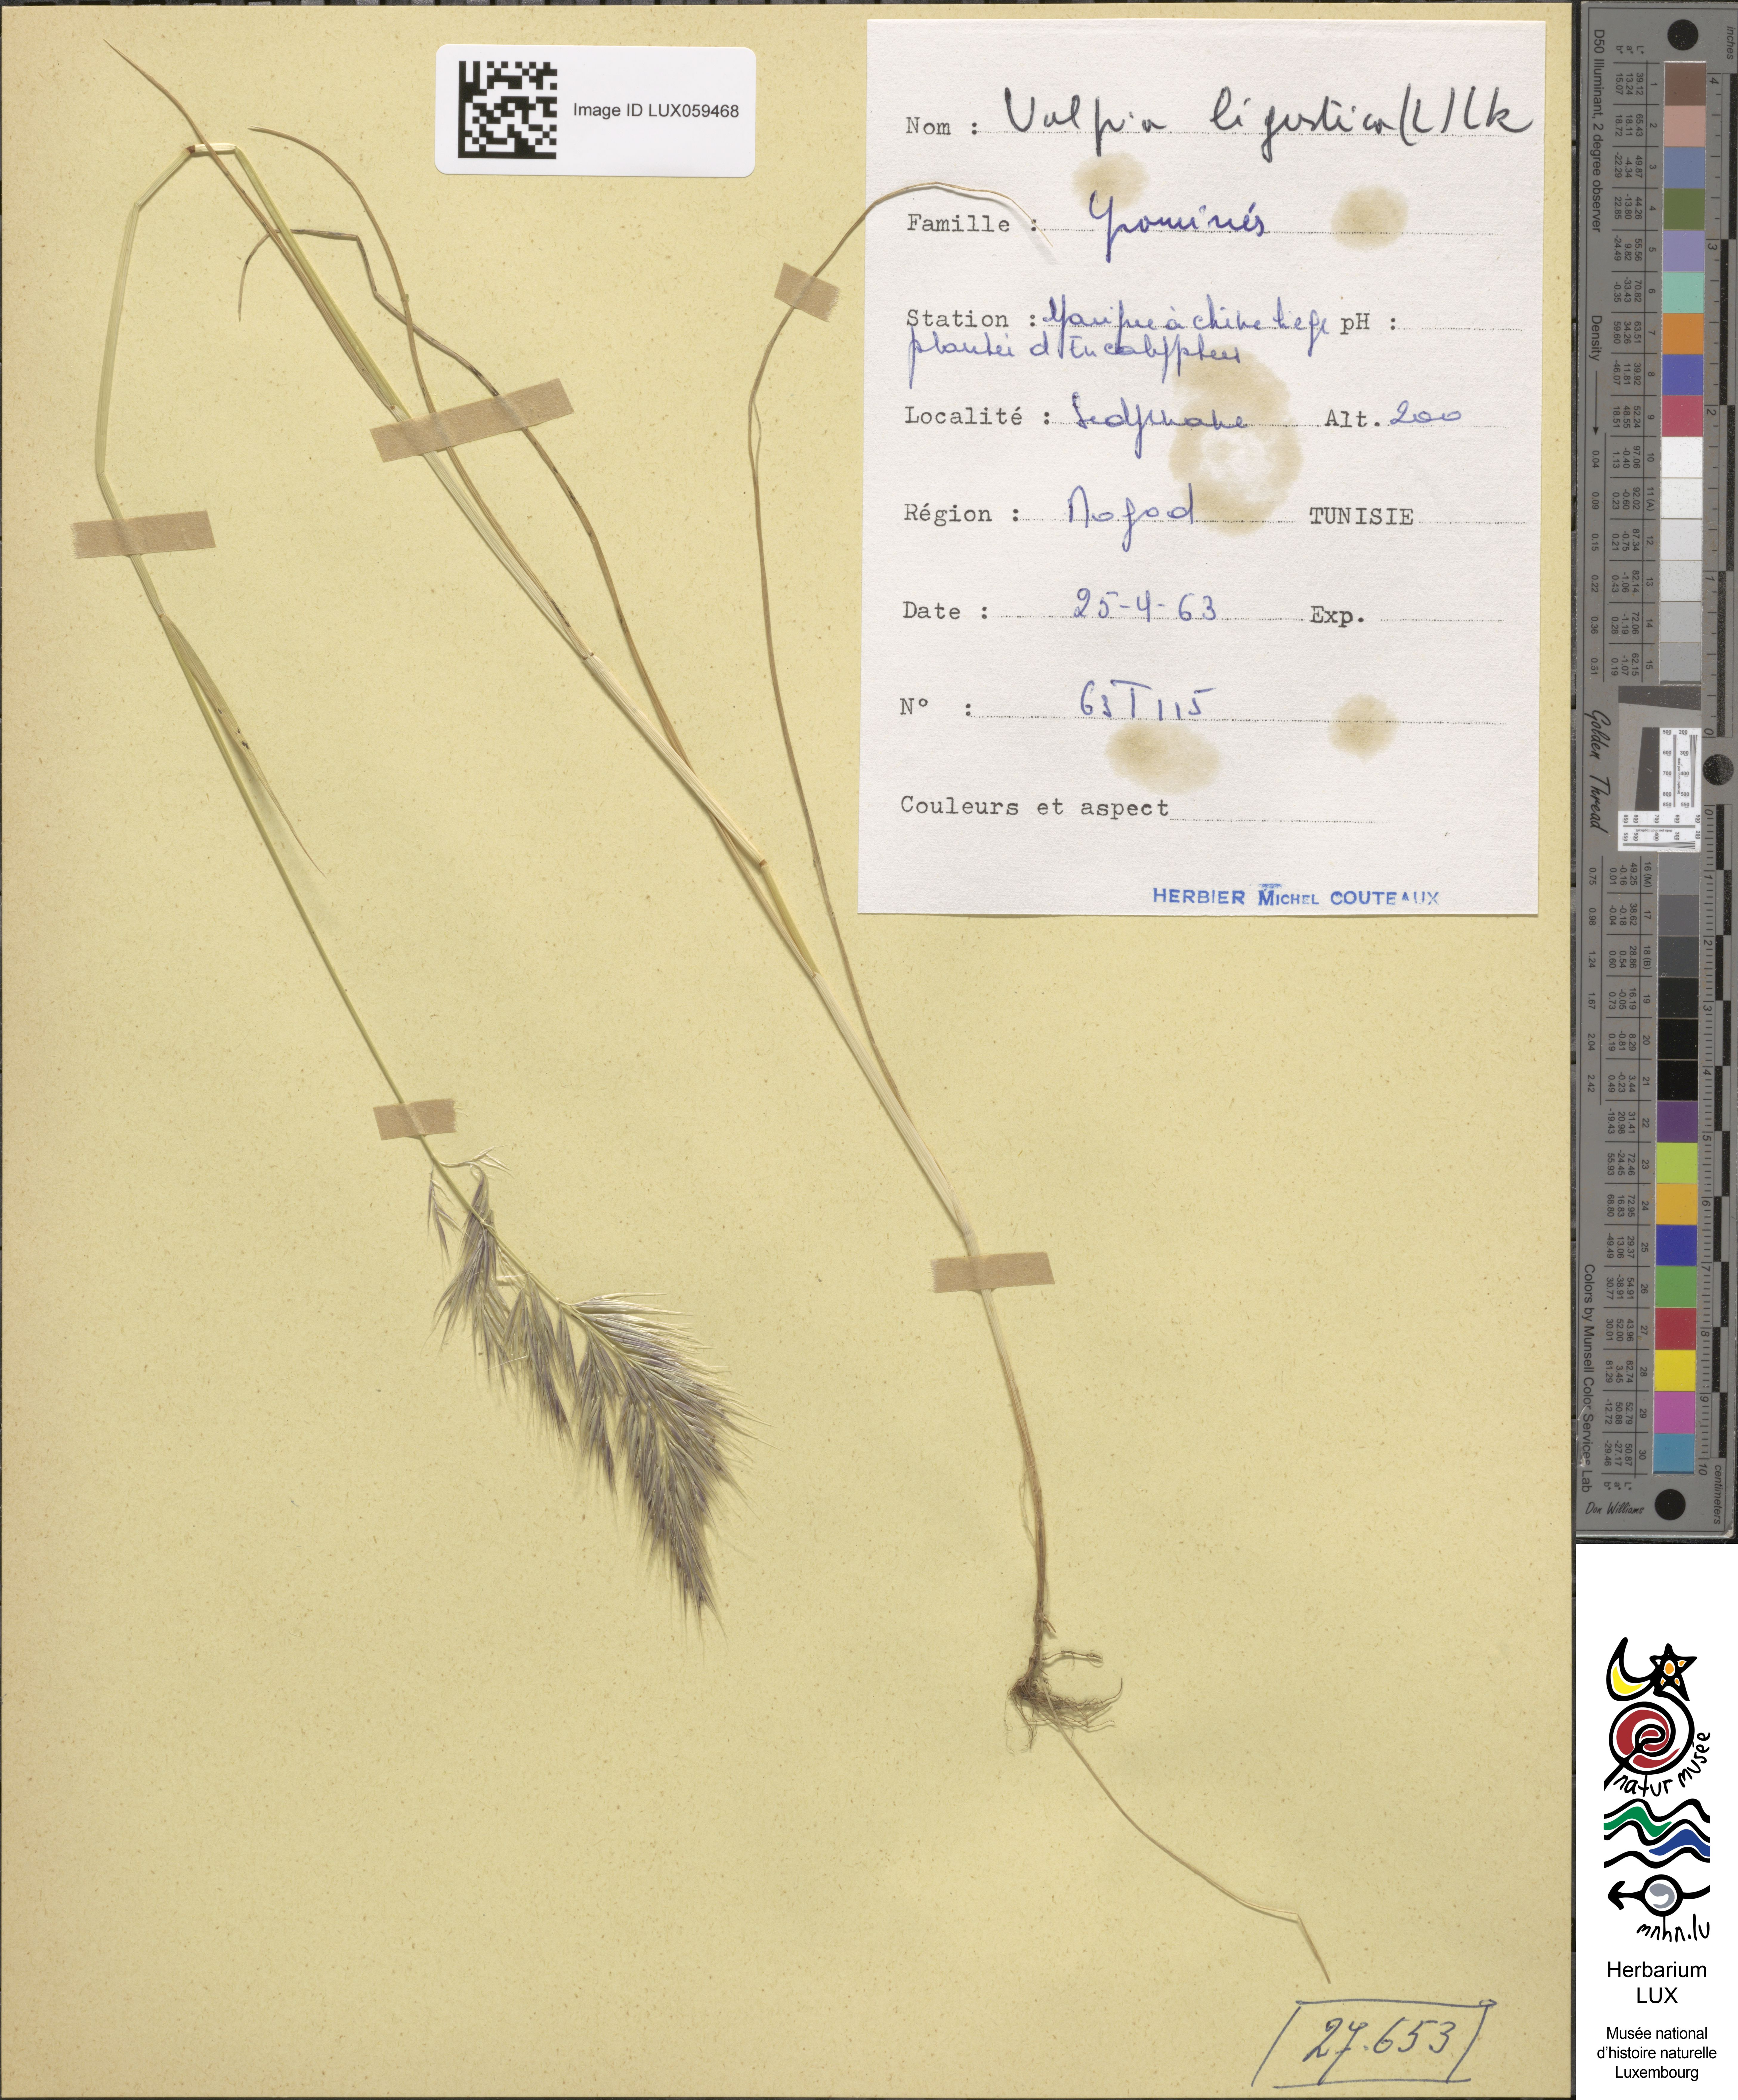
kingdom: Plantae
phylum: Tracheophyta
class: Liliopsida
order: Poales
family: Poaceae
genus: Festuca
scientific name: Festuca ligustica
